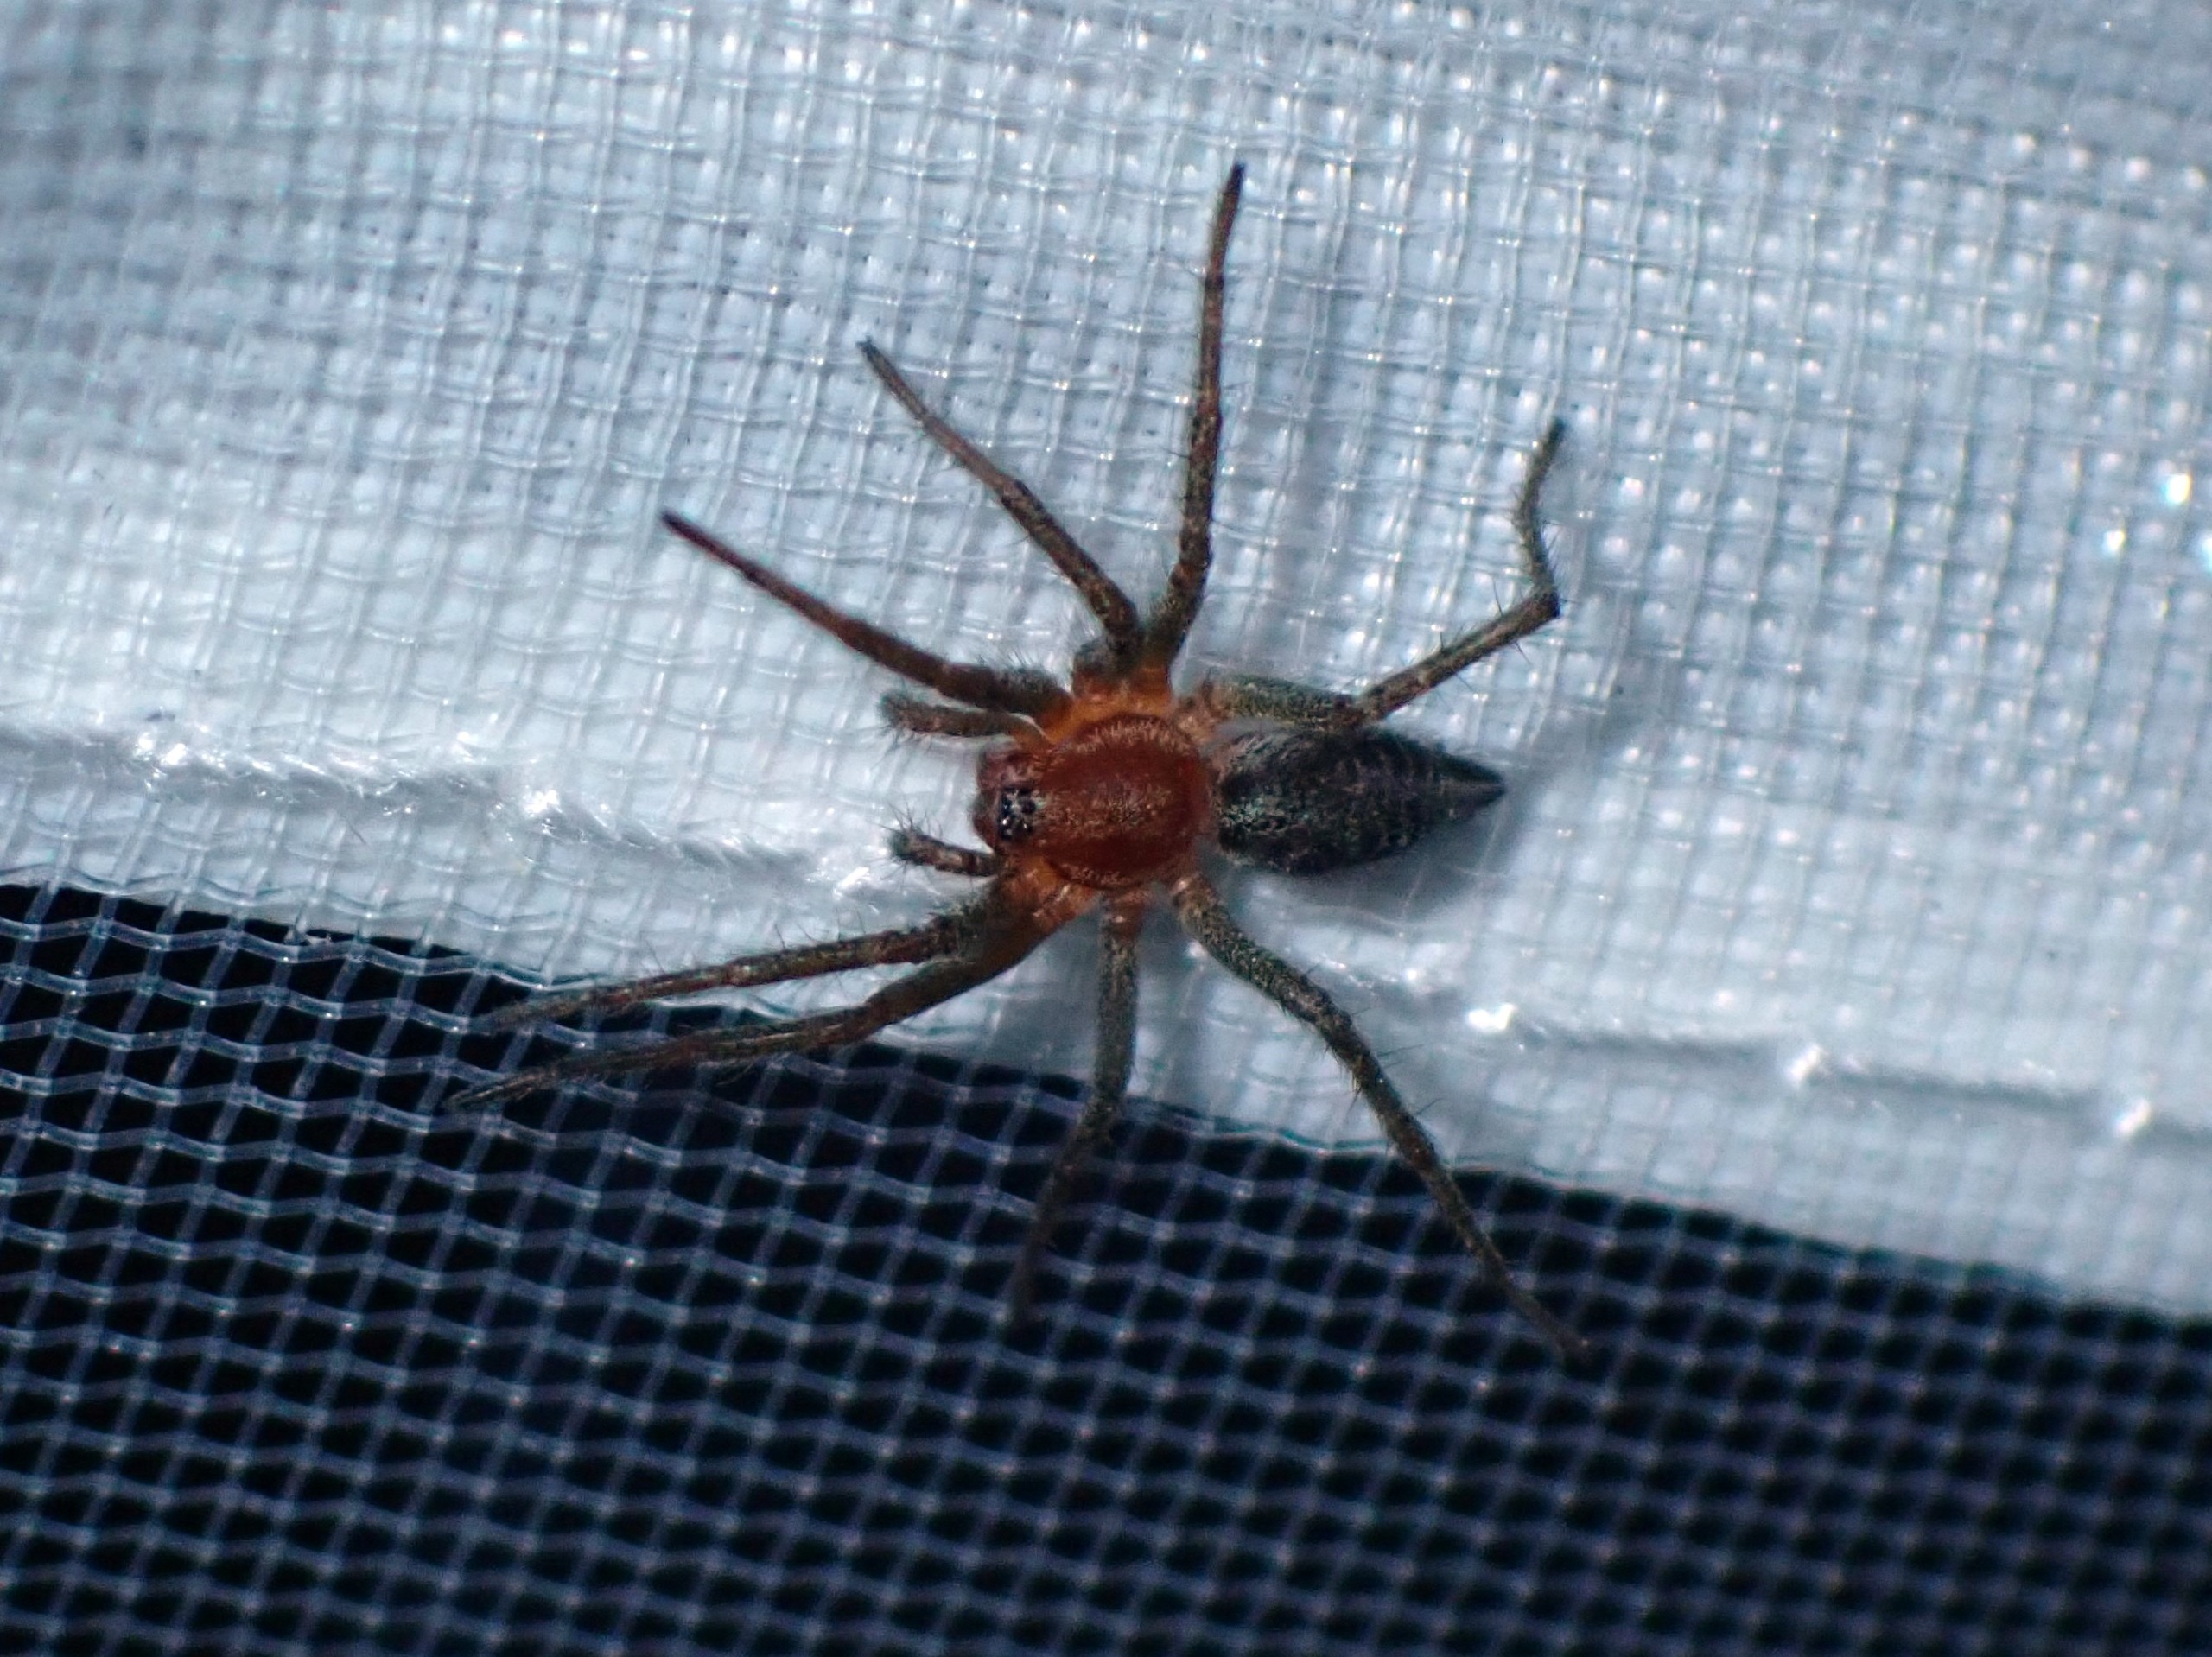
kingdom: Animalia
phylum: Arthropoda
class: Arachnida
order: Araneae
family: Agelenidae
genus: Agelena
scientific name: Agelena labyrinthica
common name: Labyrintedderkop
